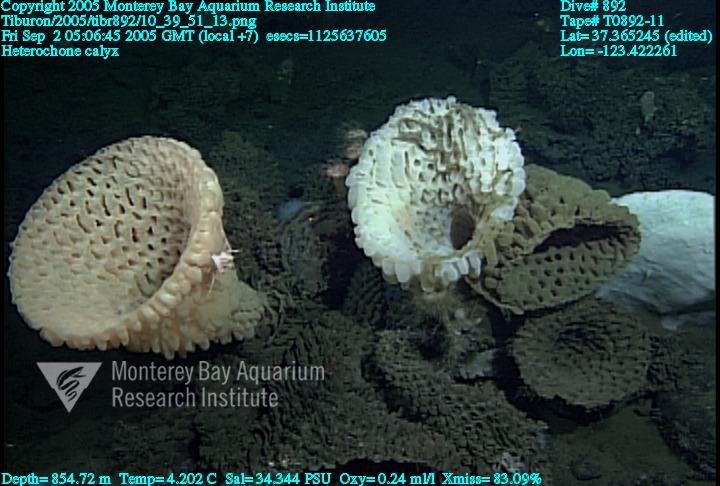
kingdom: Animalia
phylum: Porifera
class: Hexactinellida
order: Sceptrulophora
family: Aphrocallistidae
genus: Heterochone
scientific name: Heterochone calyx
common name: Fingered goblet glass sponge
